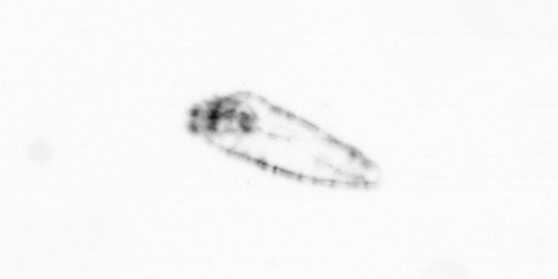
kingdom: Chromista
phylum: Ochrophyta
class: Bacillariophyceae
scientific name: Bacillariophyceae
